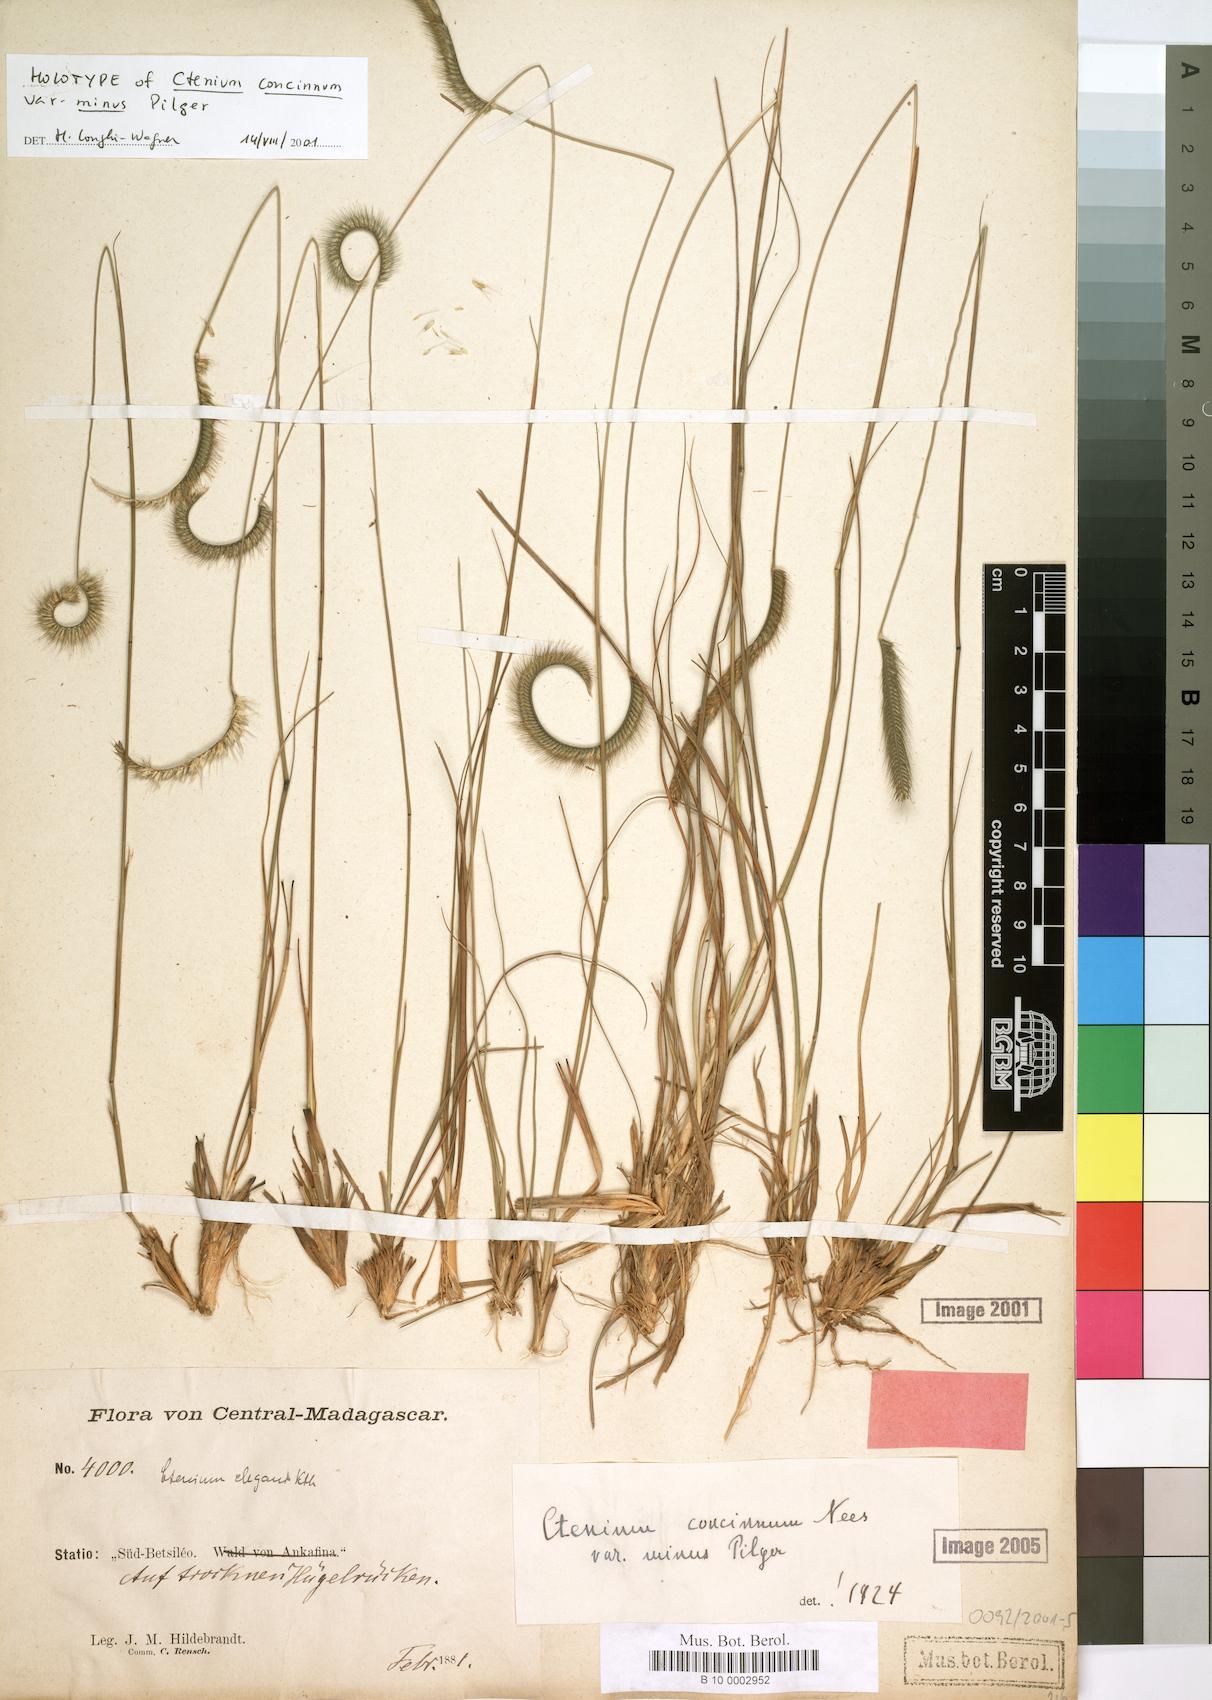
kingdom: Plantae
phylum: Tracheophyta
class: Liliopsida
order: Poales
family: Poaceae
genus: Ctenium
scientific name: Ctenium concinnum
